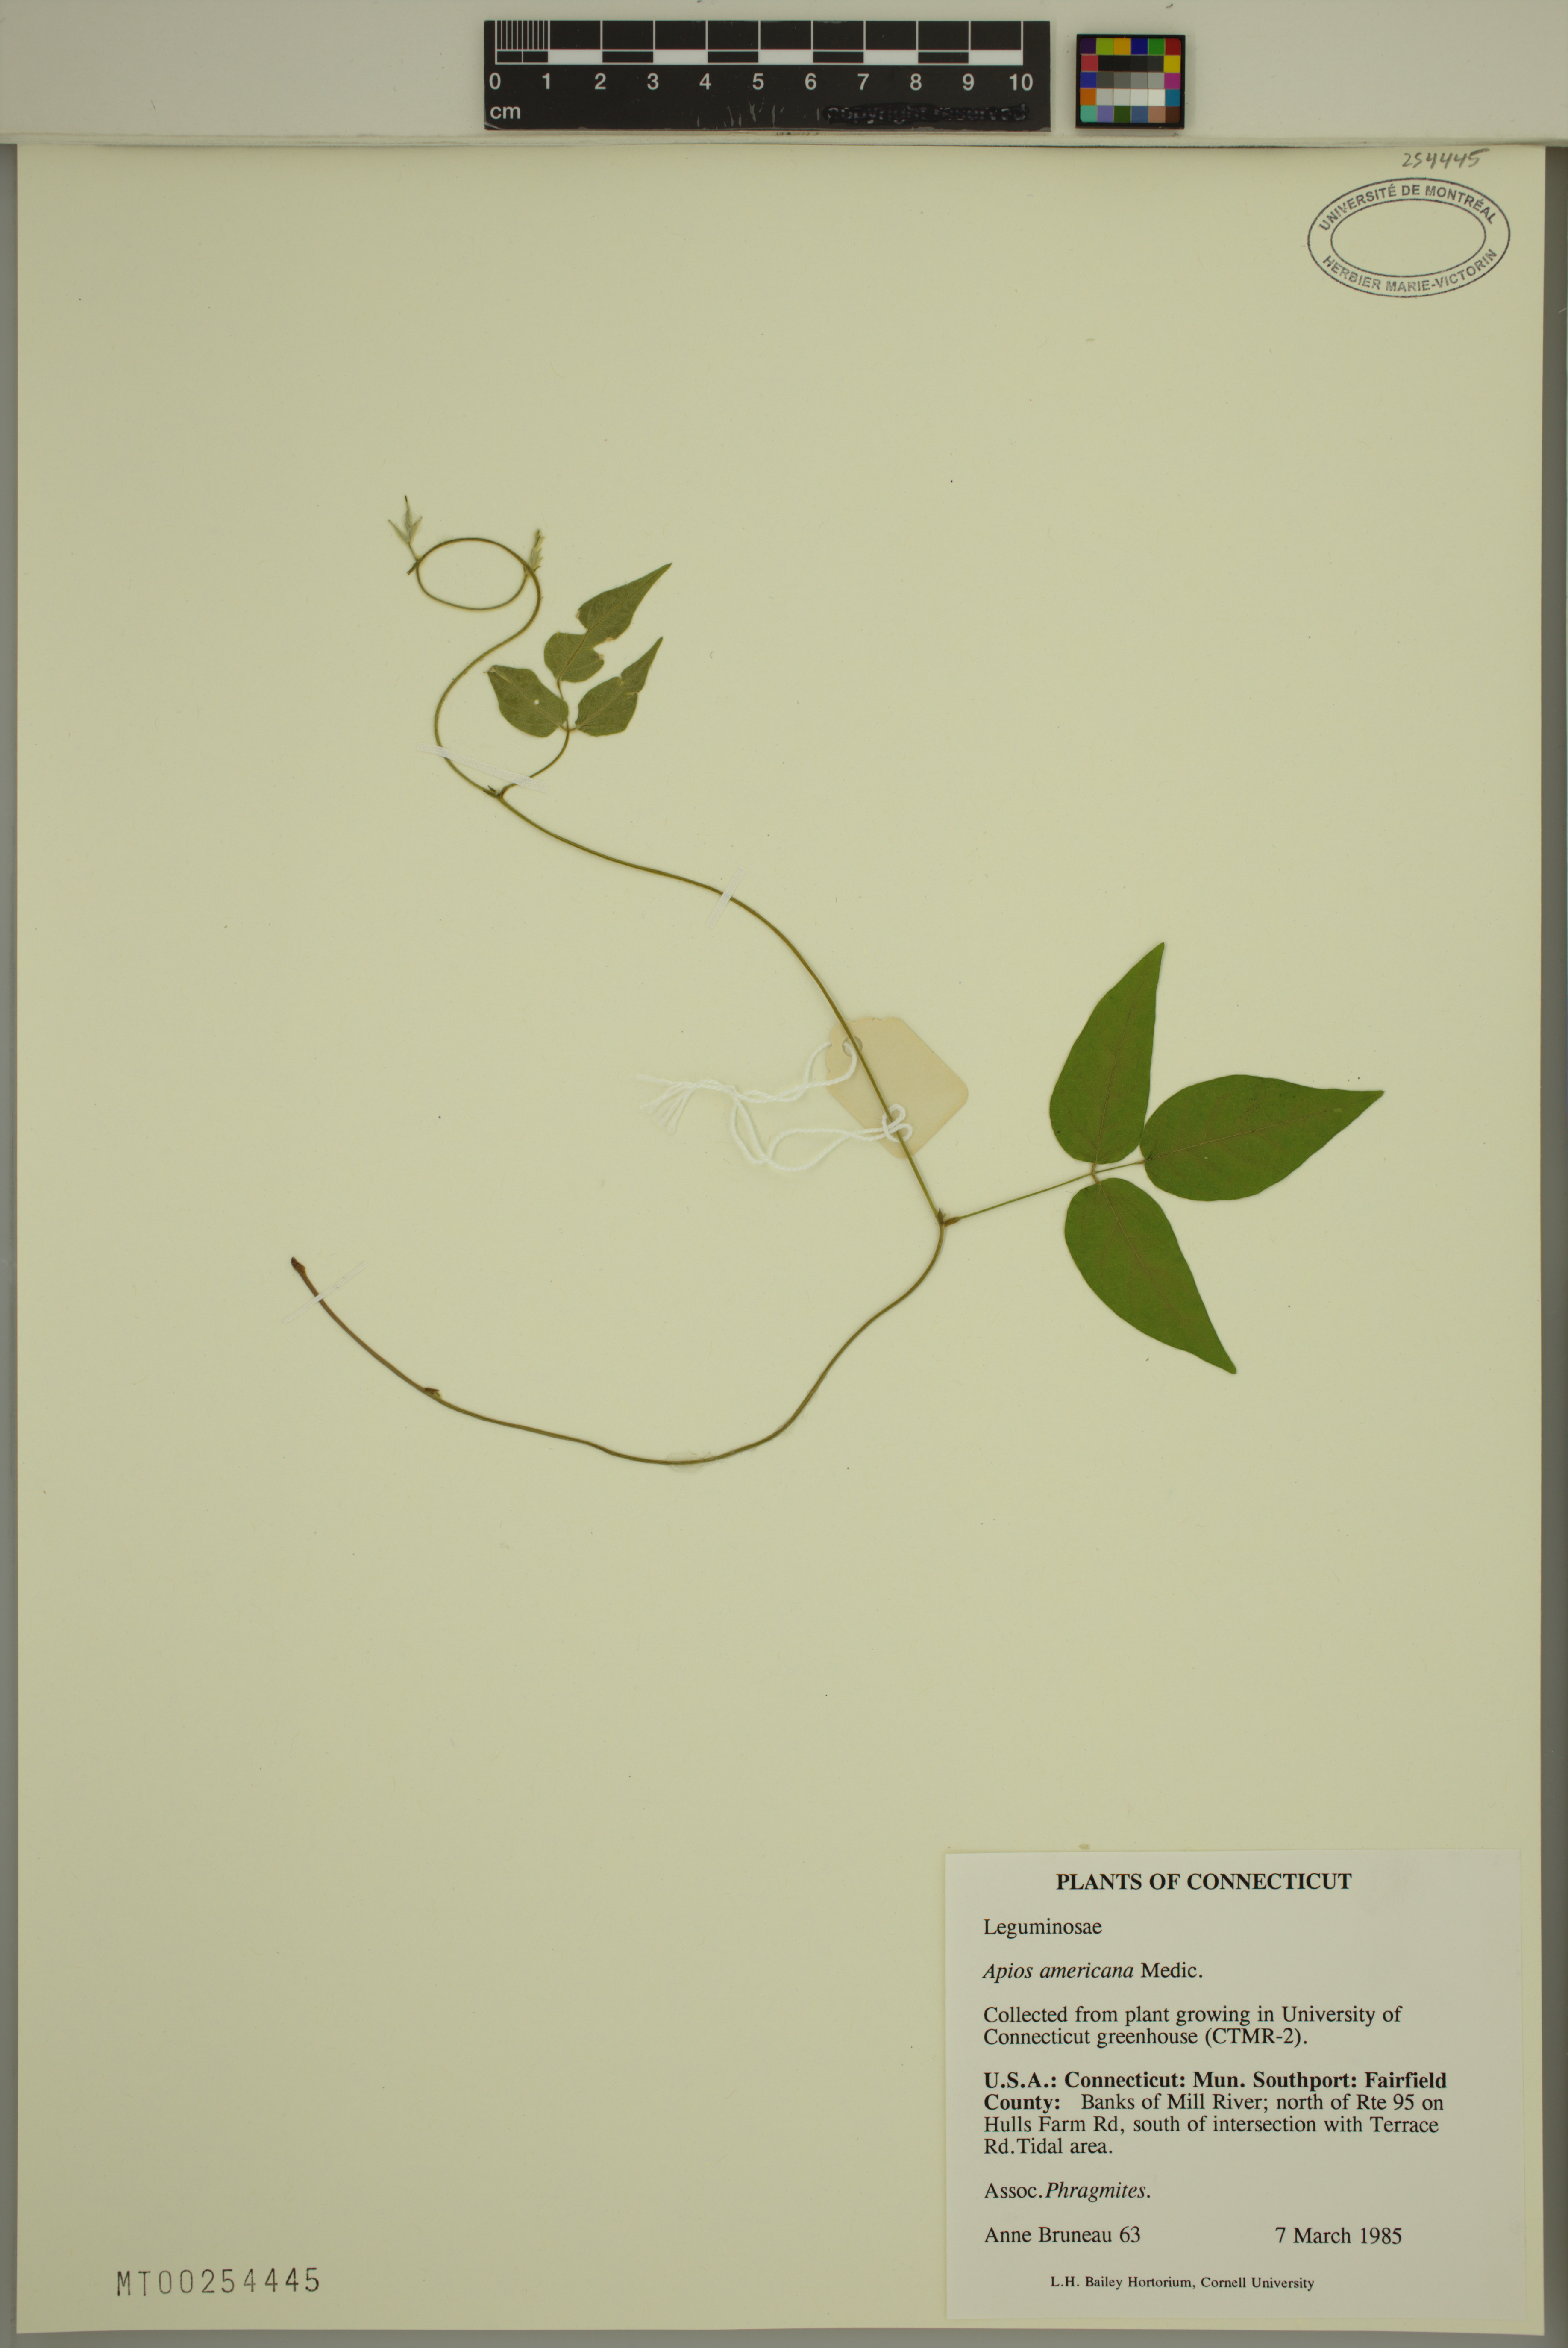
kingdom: Plantae
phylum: Tracheophyta
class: Magnoliopsida
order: Fabales
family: Fabaceae
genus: Apios
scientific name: Apios americana
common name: American potato-bean
